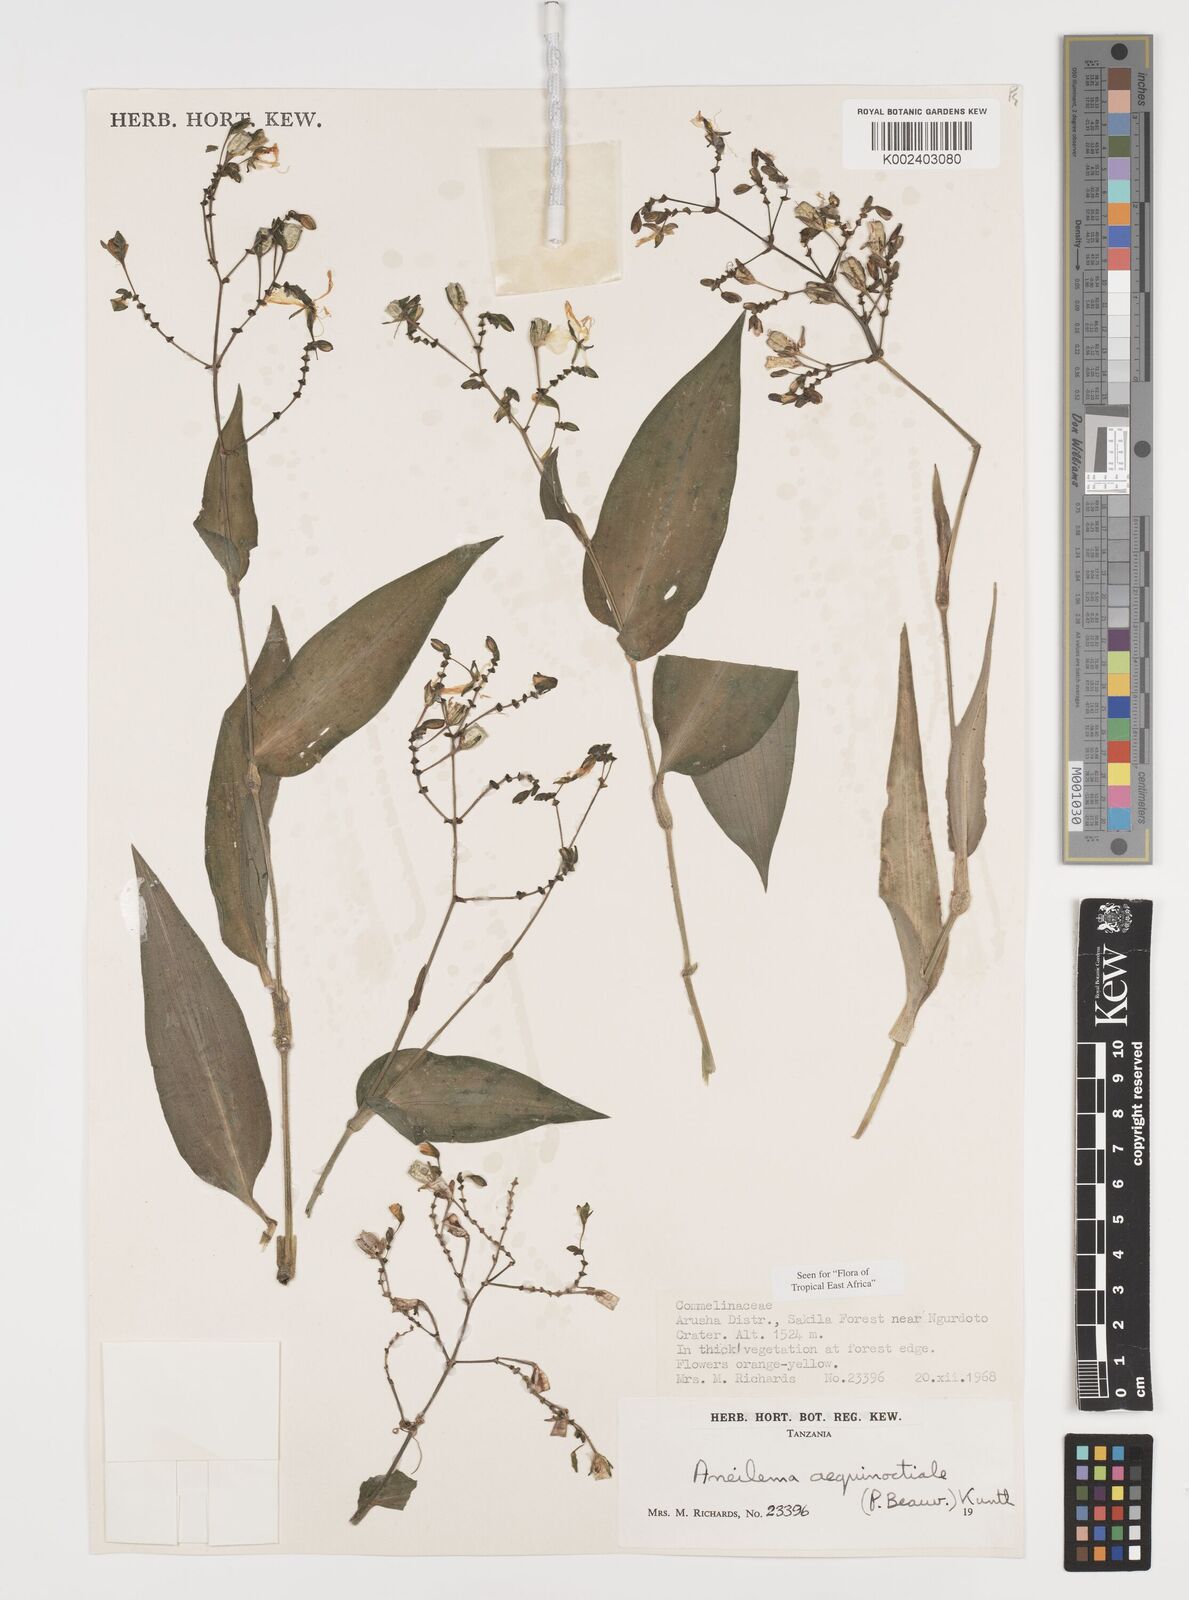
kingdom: Plantae
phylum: Tracheophyta
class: Liliopsida
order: Commelinales
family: Commelinaceae
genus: Aneilema
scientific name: Aneilema aequinoctiale
